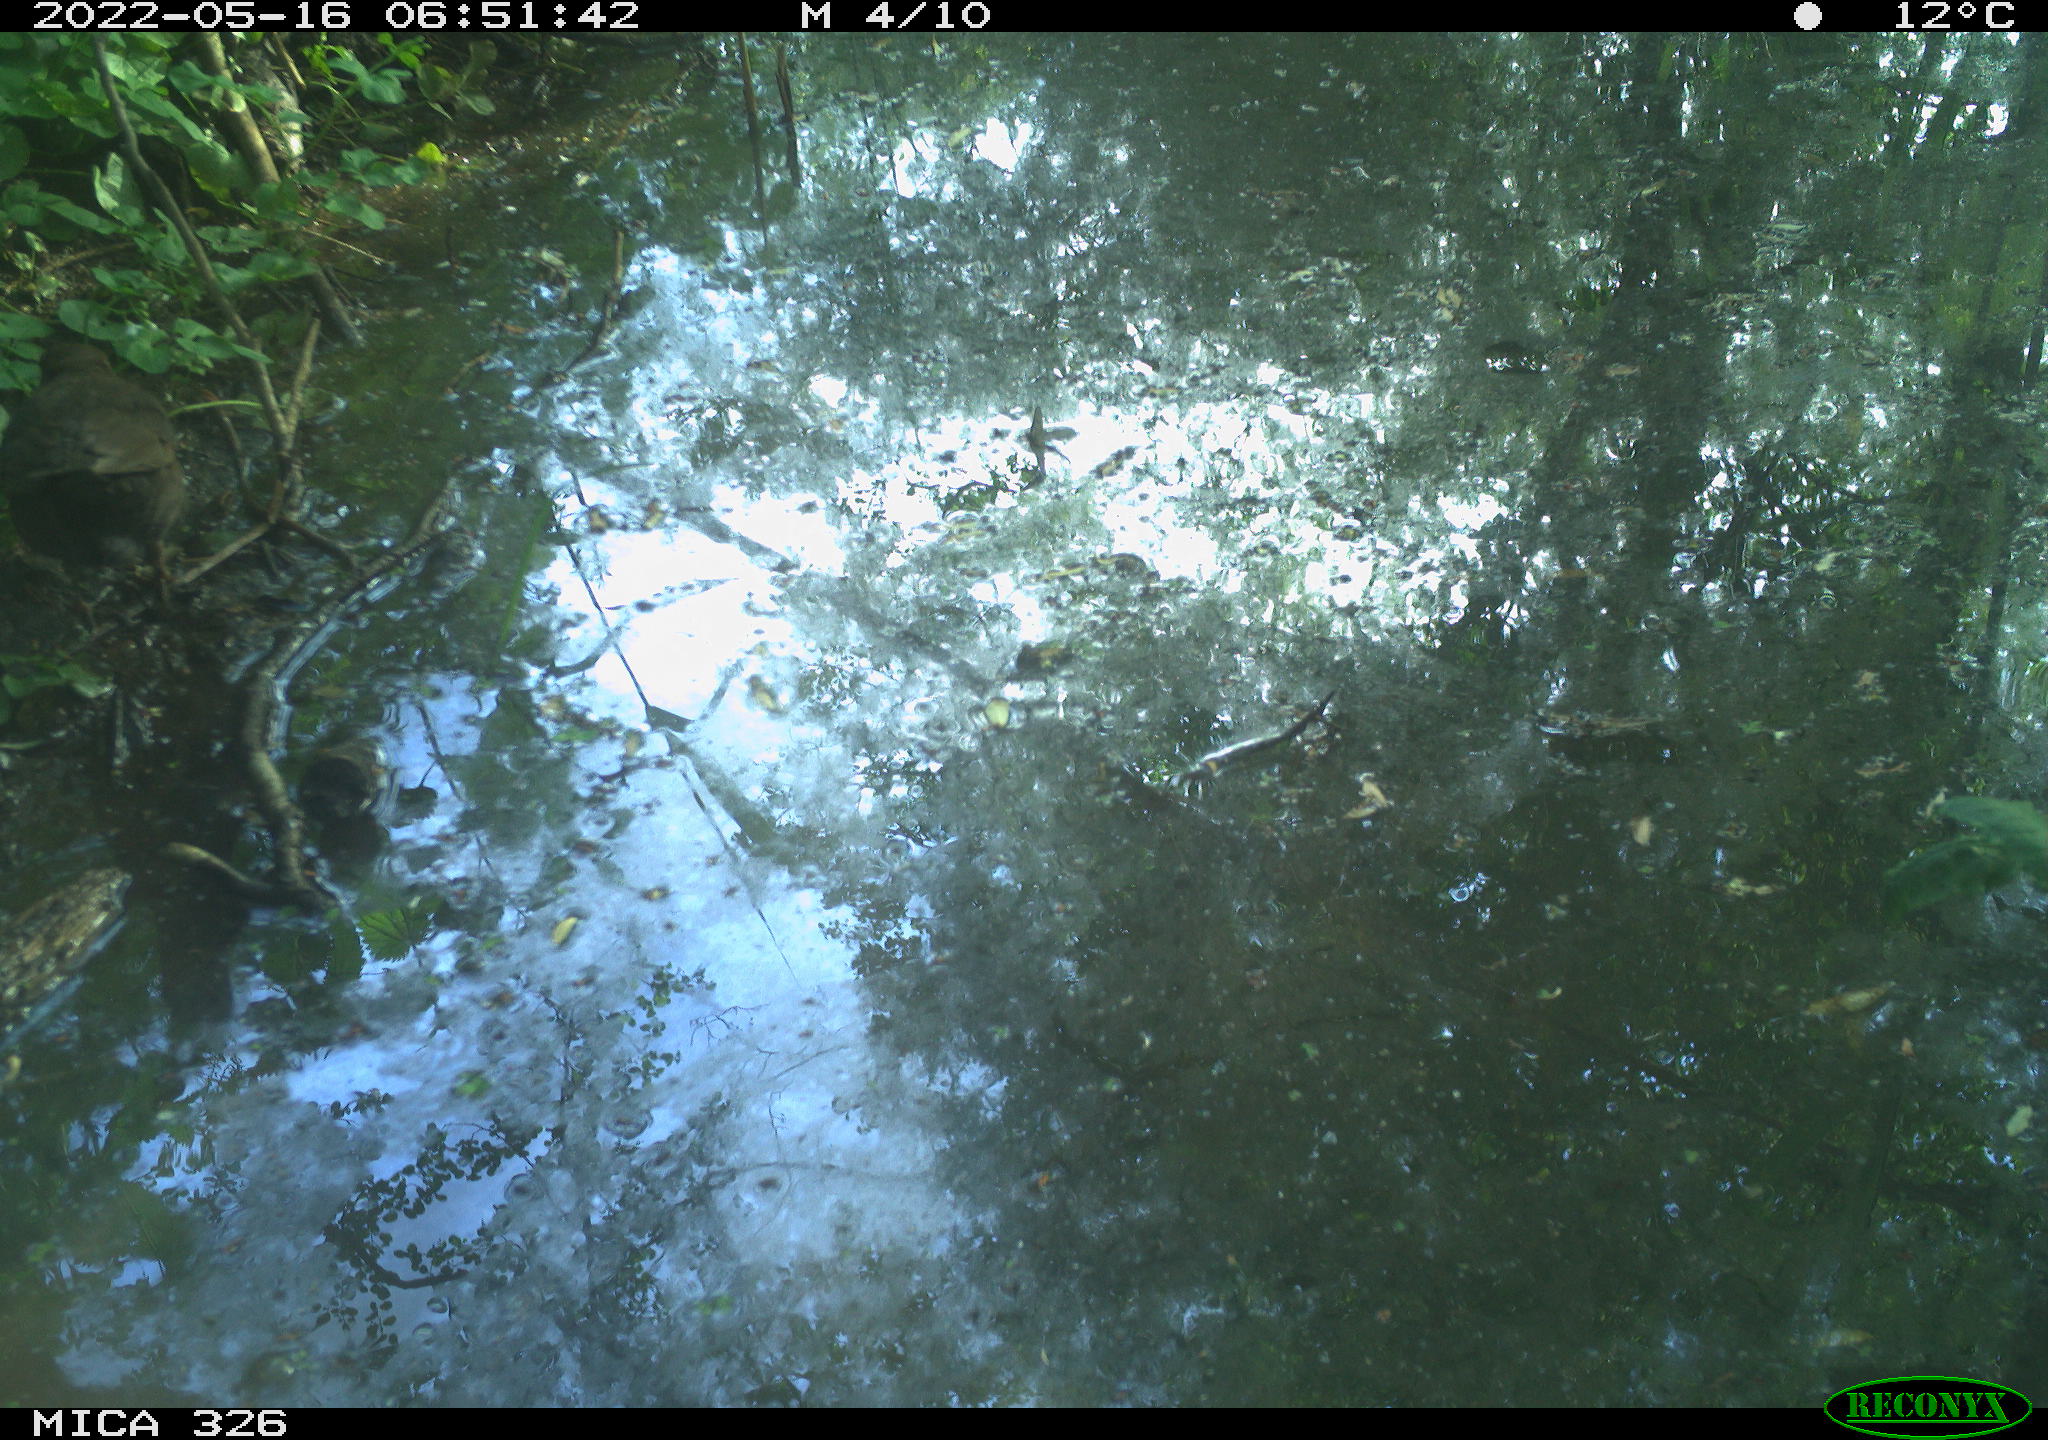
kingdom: Animalia
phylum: Chordata
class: Aves
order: Passeriformes
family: Turdidae
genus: Turdus
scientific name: Turdus merula
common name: Common blackbird
